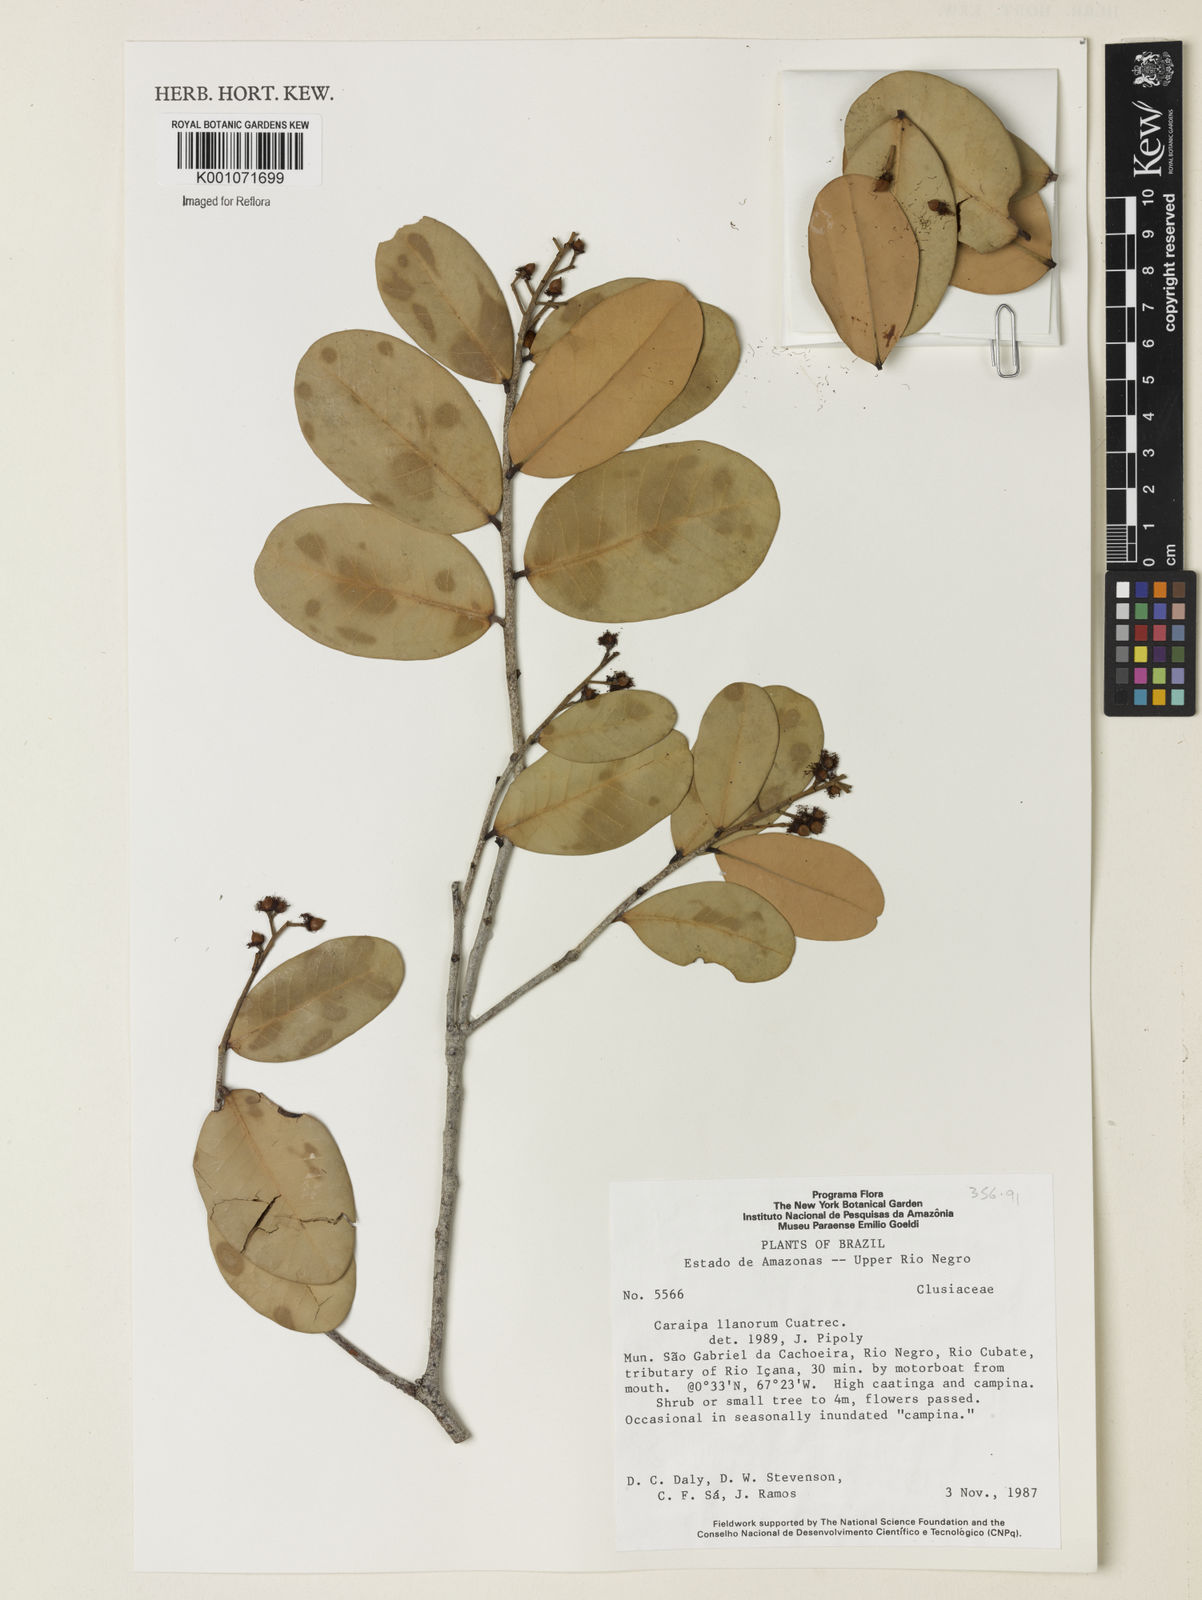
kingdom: Plantae
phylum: Tracheophyta
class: Magnoliopsida
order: Malpighiales
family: Calophyllaceae
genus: Caraipa
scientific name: Caraipa llanorum
